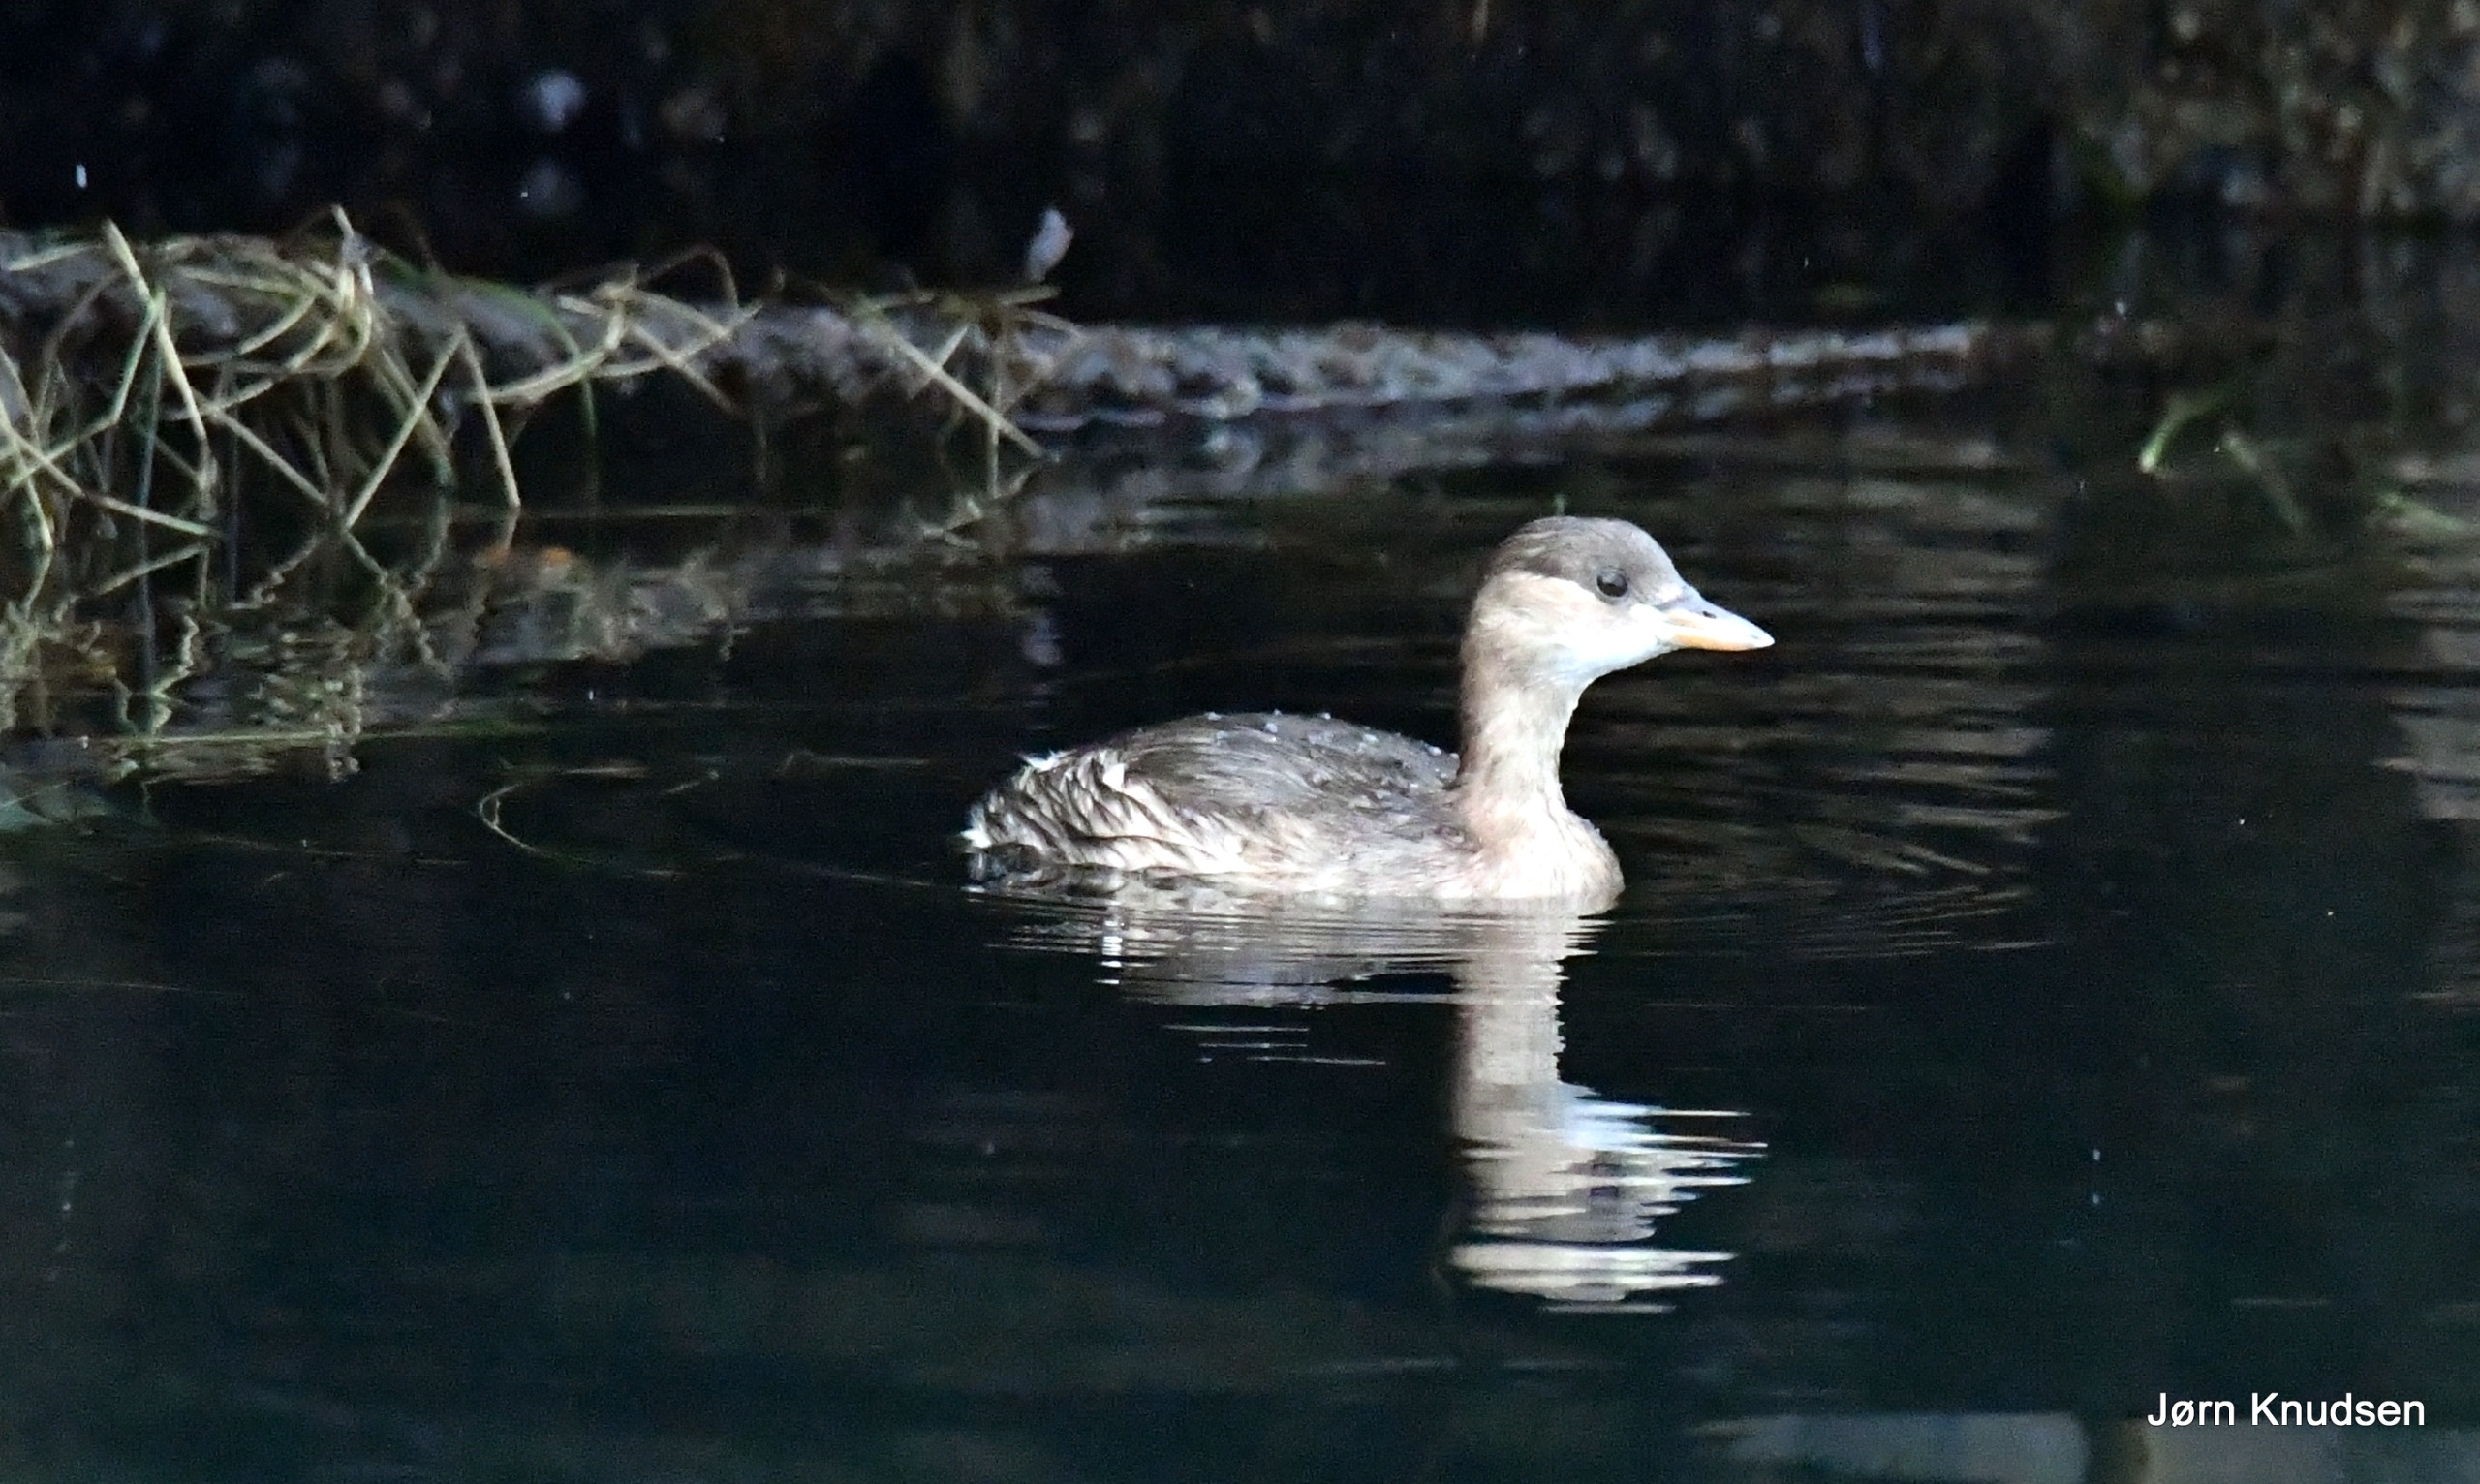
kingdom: Animalia
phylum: Chordata
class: Aves
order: Podicipediformes
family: Podicipedidae
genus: Tachybaptus
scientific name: Tachybaptus ruficollis
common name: Lille lappedykker
